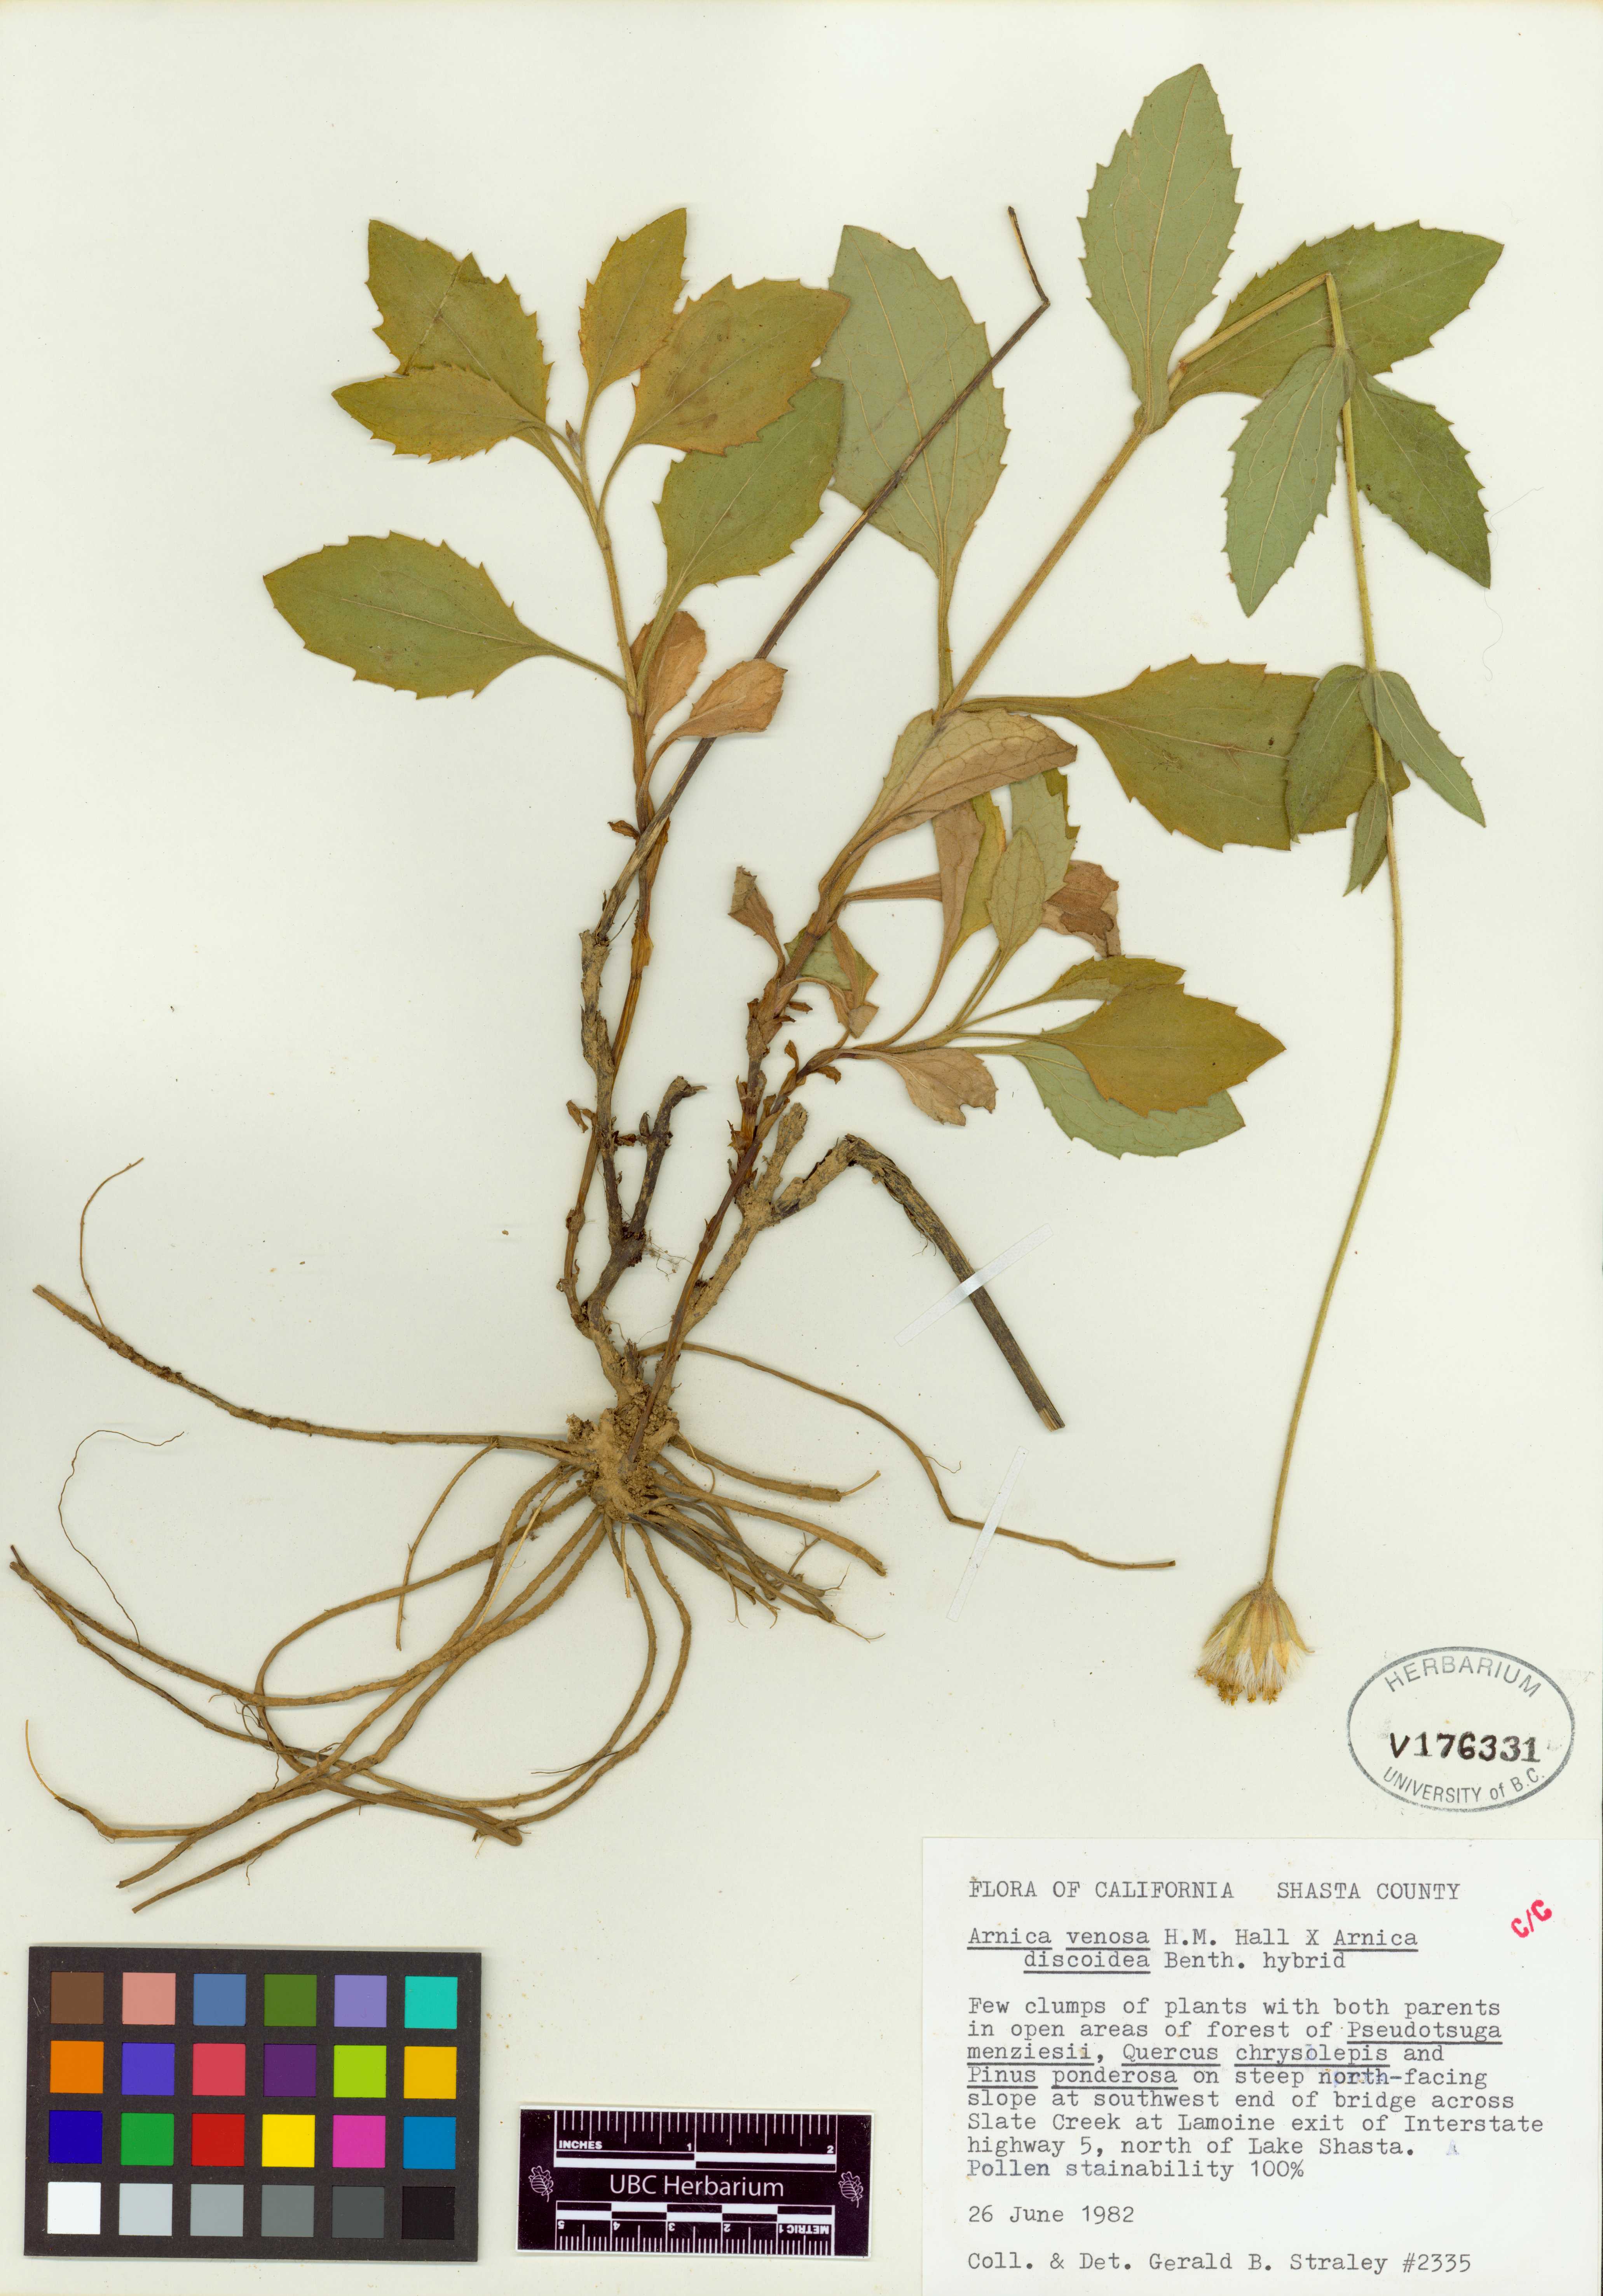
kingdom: Plantae
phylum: Tracheophyta
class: Magnoliopsida
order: Asterales
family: Asteraceae
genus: Arnica
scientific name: Arnica
